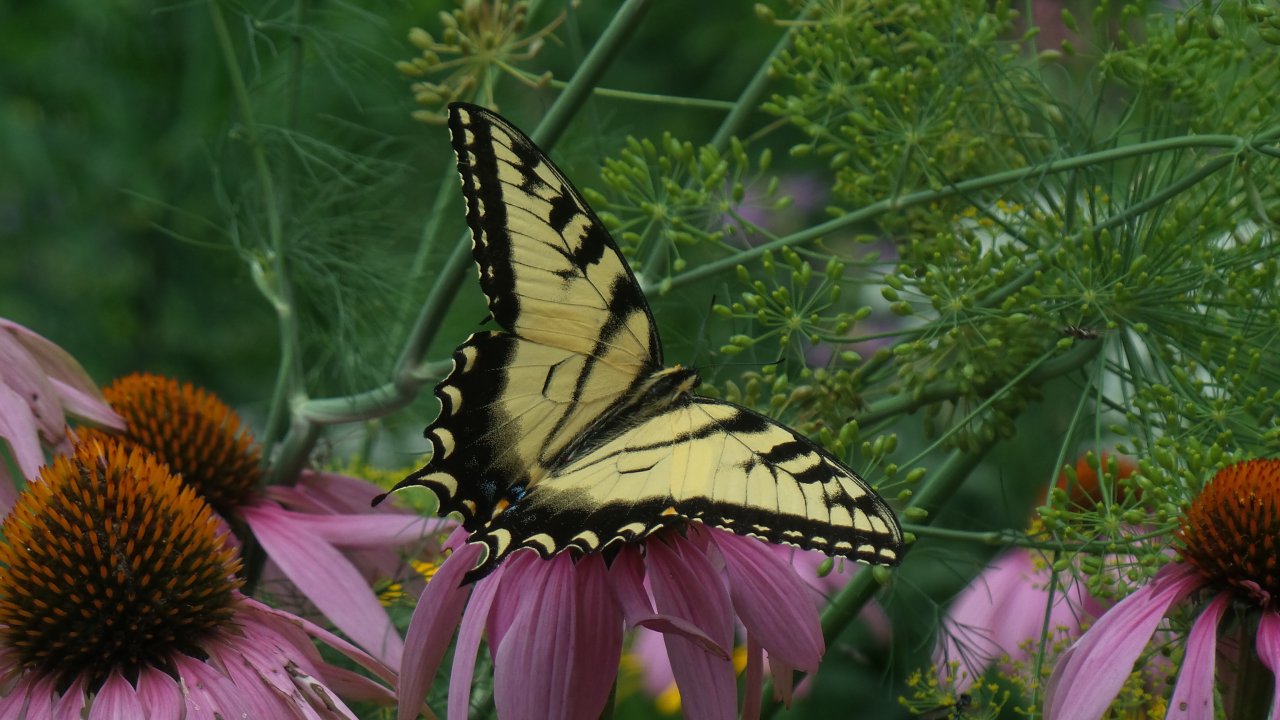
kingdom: Animalia
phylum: Arthropoda
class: Insecta
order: Lepidoptera
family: Papilionidae
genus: Pterourus
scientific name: Pterourus glaucus
